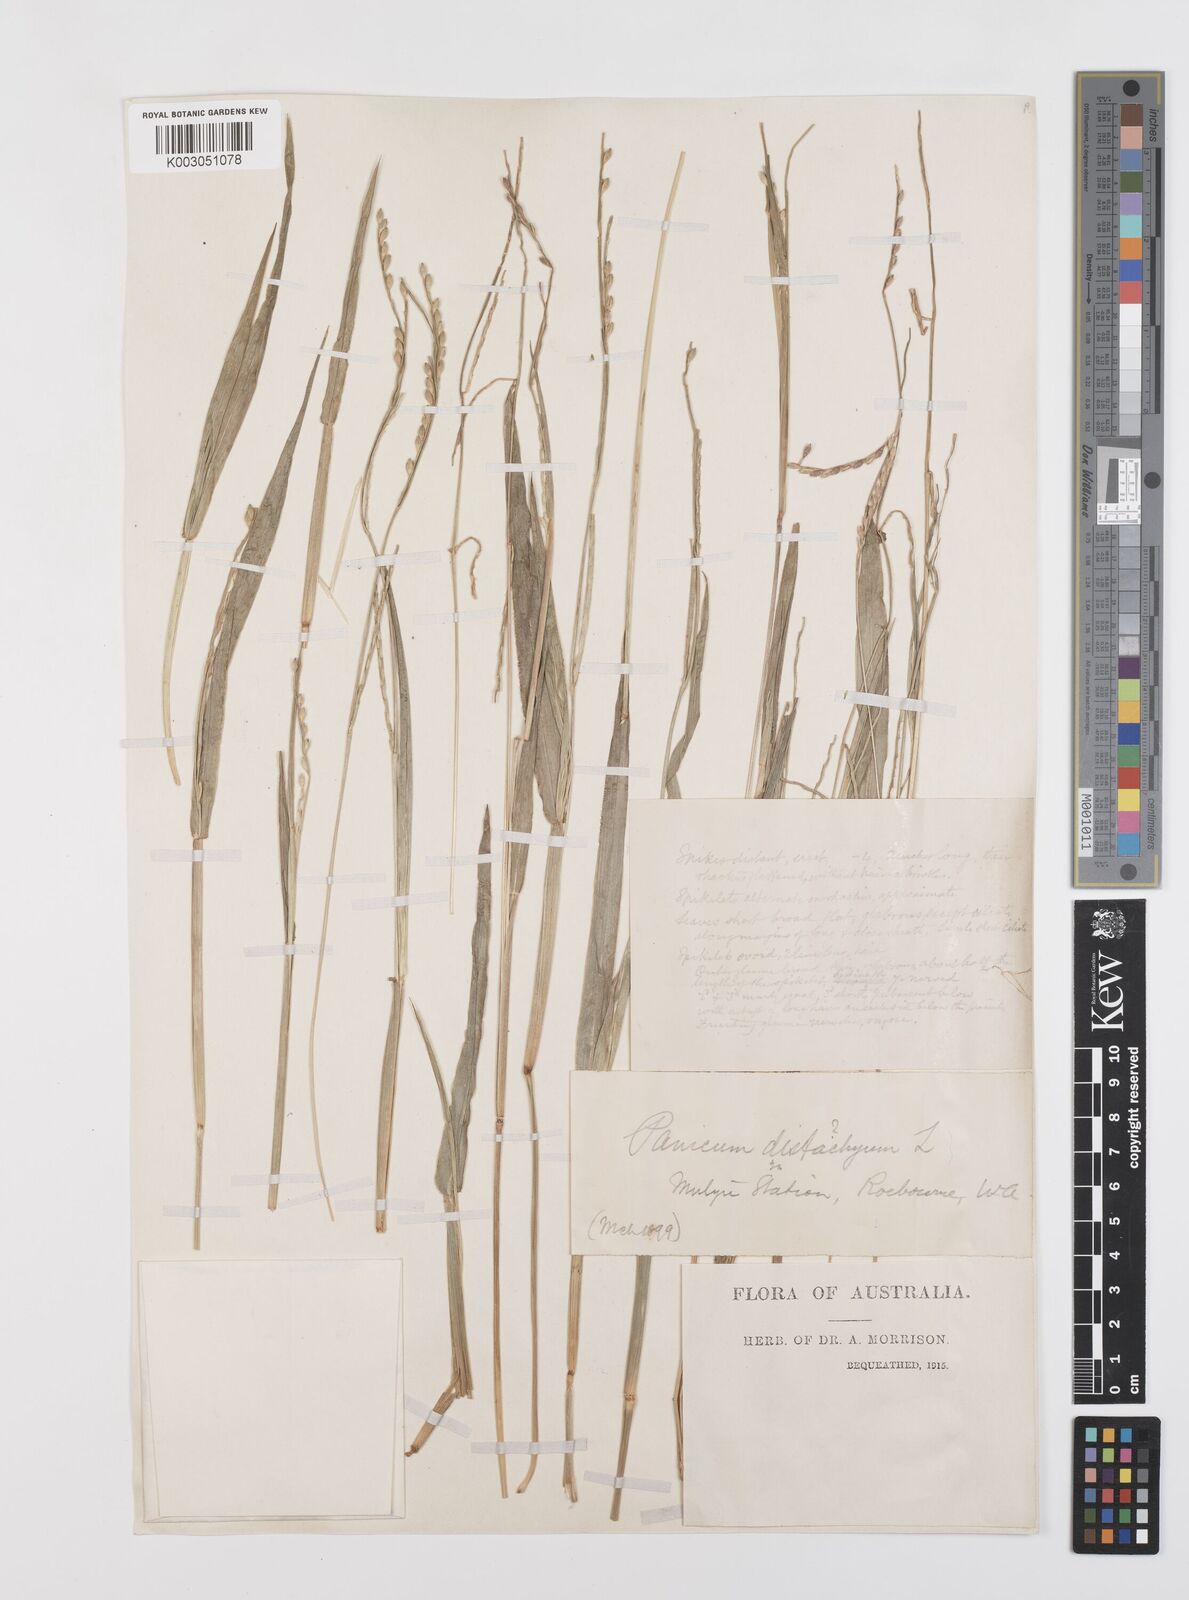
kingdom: Plantae
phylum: Tracheophyta
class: Liliopsida
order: Poales
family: Poaceae
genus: Urochloa
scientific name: Urochloa piligera
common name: Wattle signalgrass
